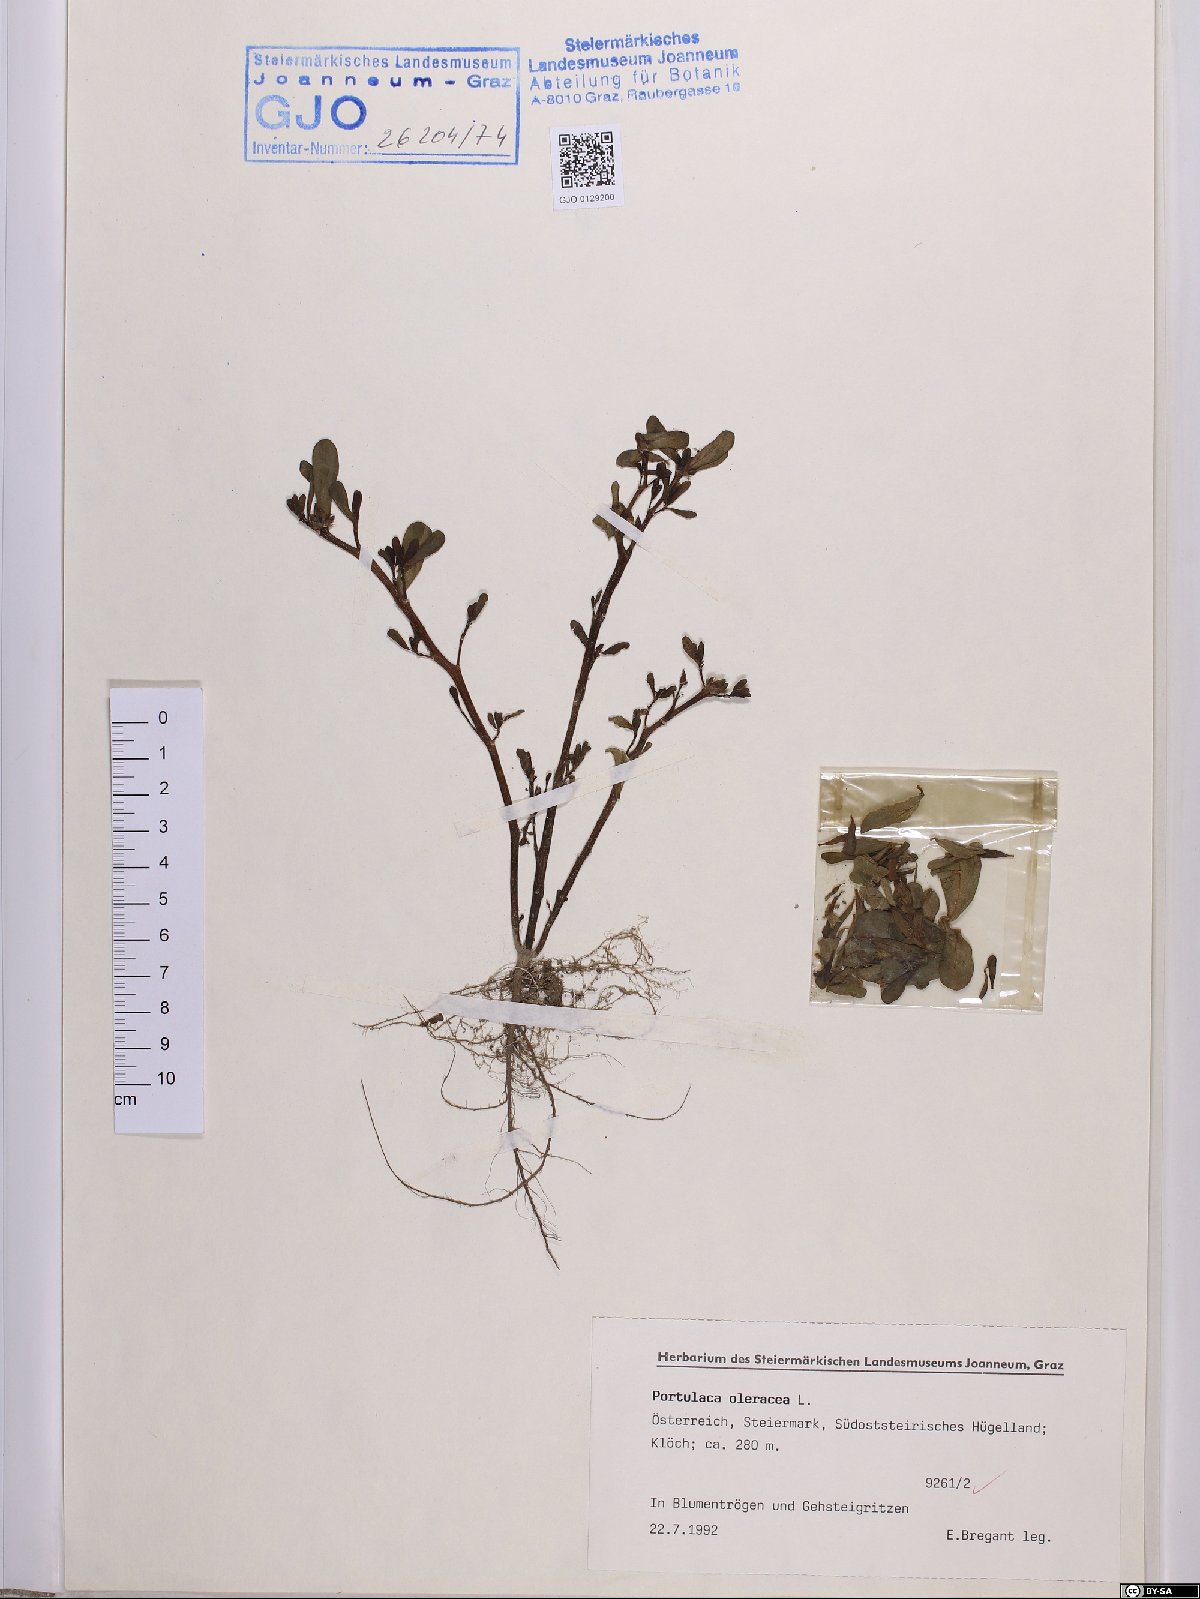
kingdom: Plantae
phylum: Tracheophyta
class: Magnoliopsida
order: Caryophyllales
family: Portulacaceae
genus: Portulaca
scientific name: Portulaca oleracea
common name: Common purslane
